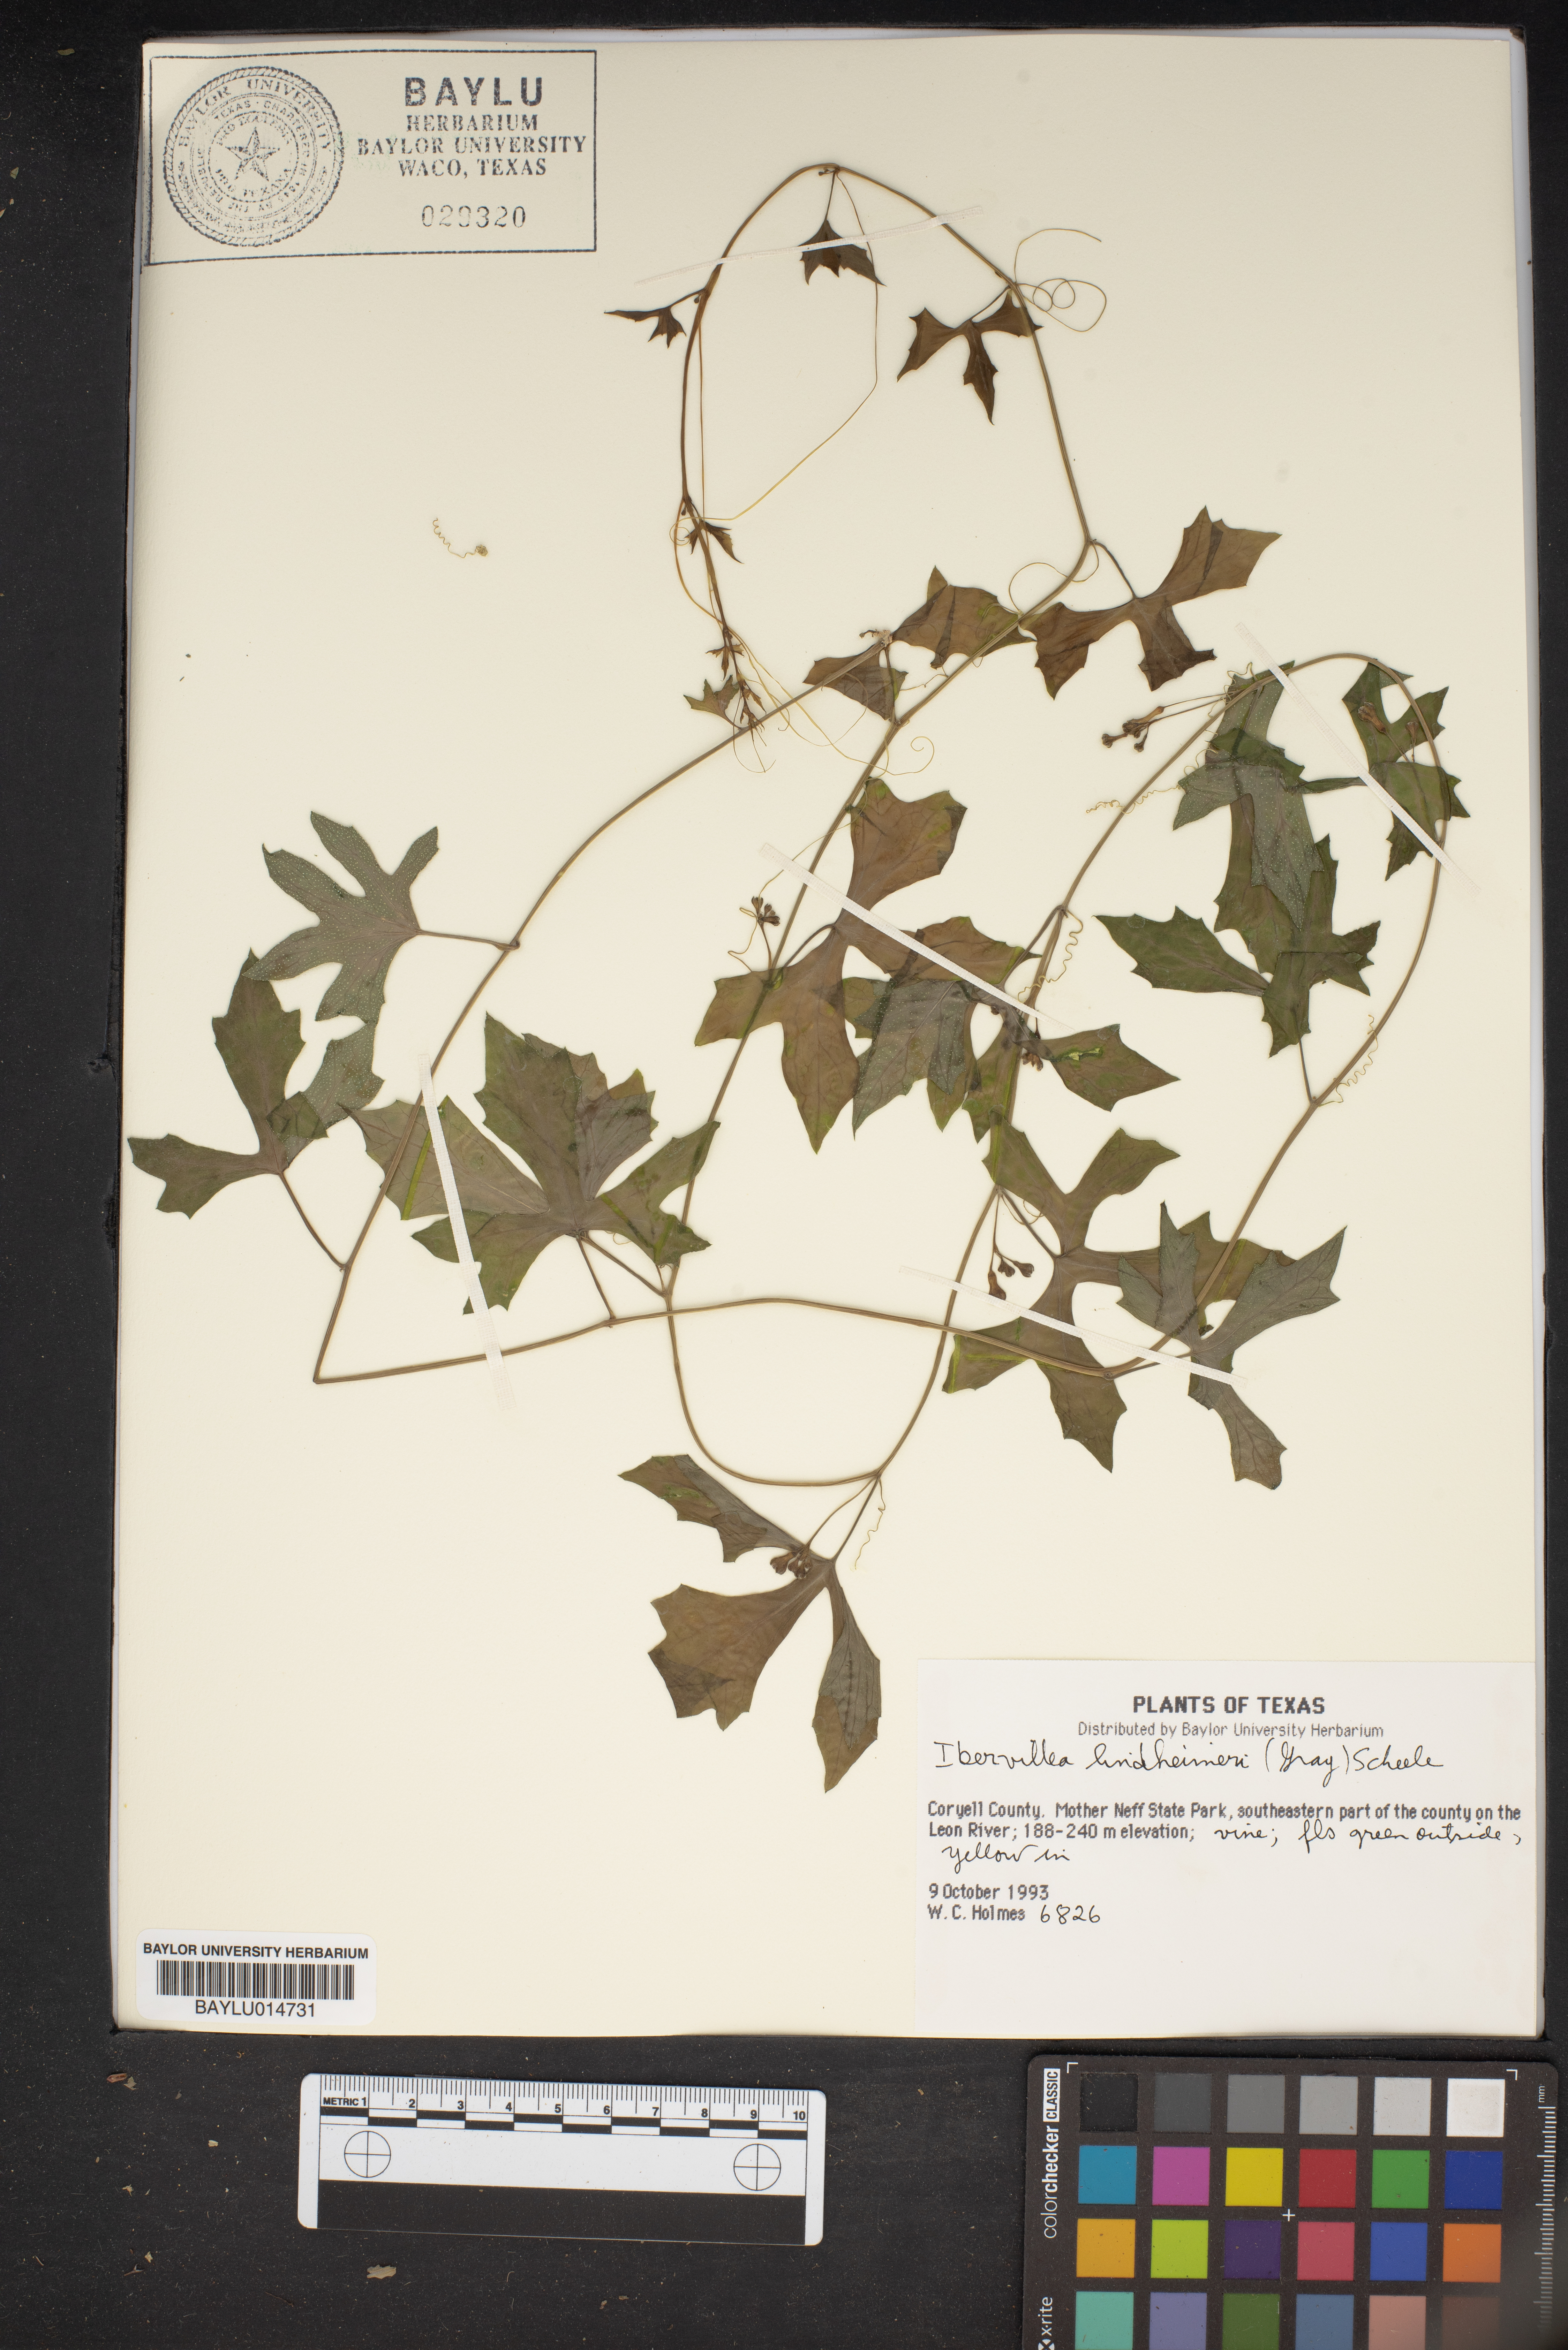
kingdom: Plantae
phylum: Tracheophyta
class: Magnoliopsida
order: Cucurbitales
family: Cucurbitaceae
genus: Ibervillea
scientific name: Ibervillea lindheimeri
